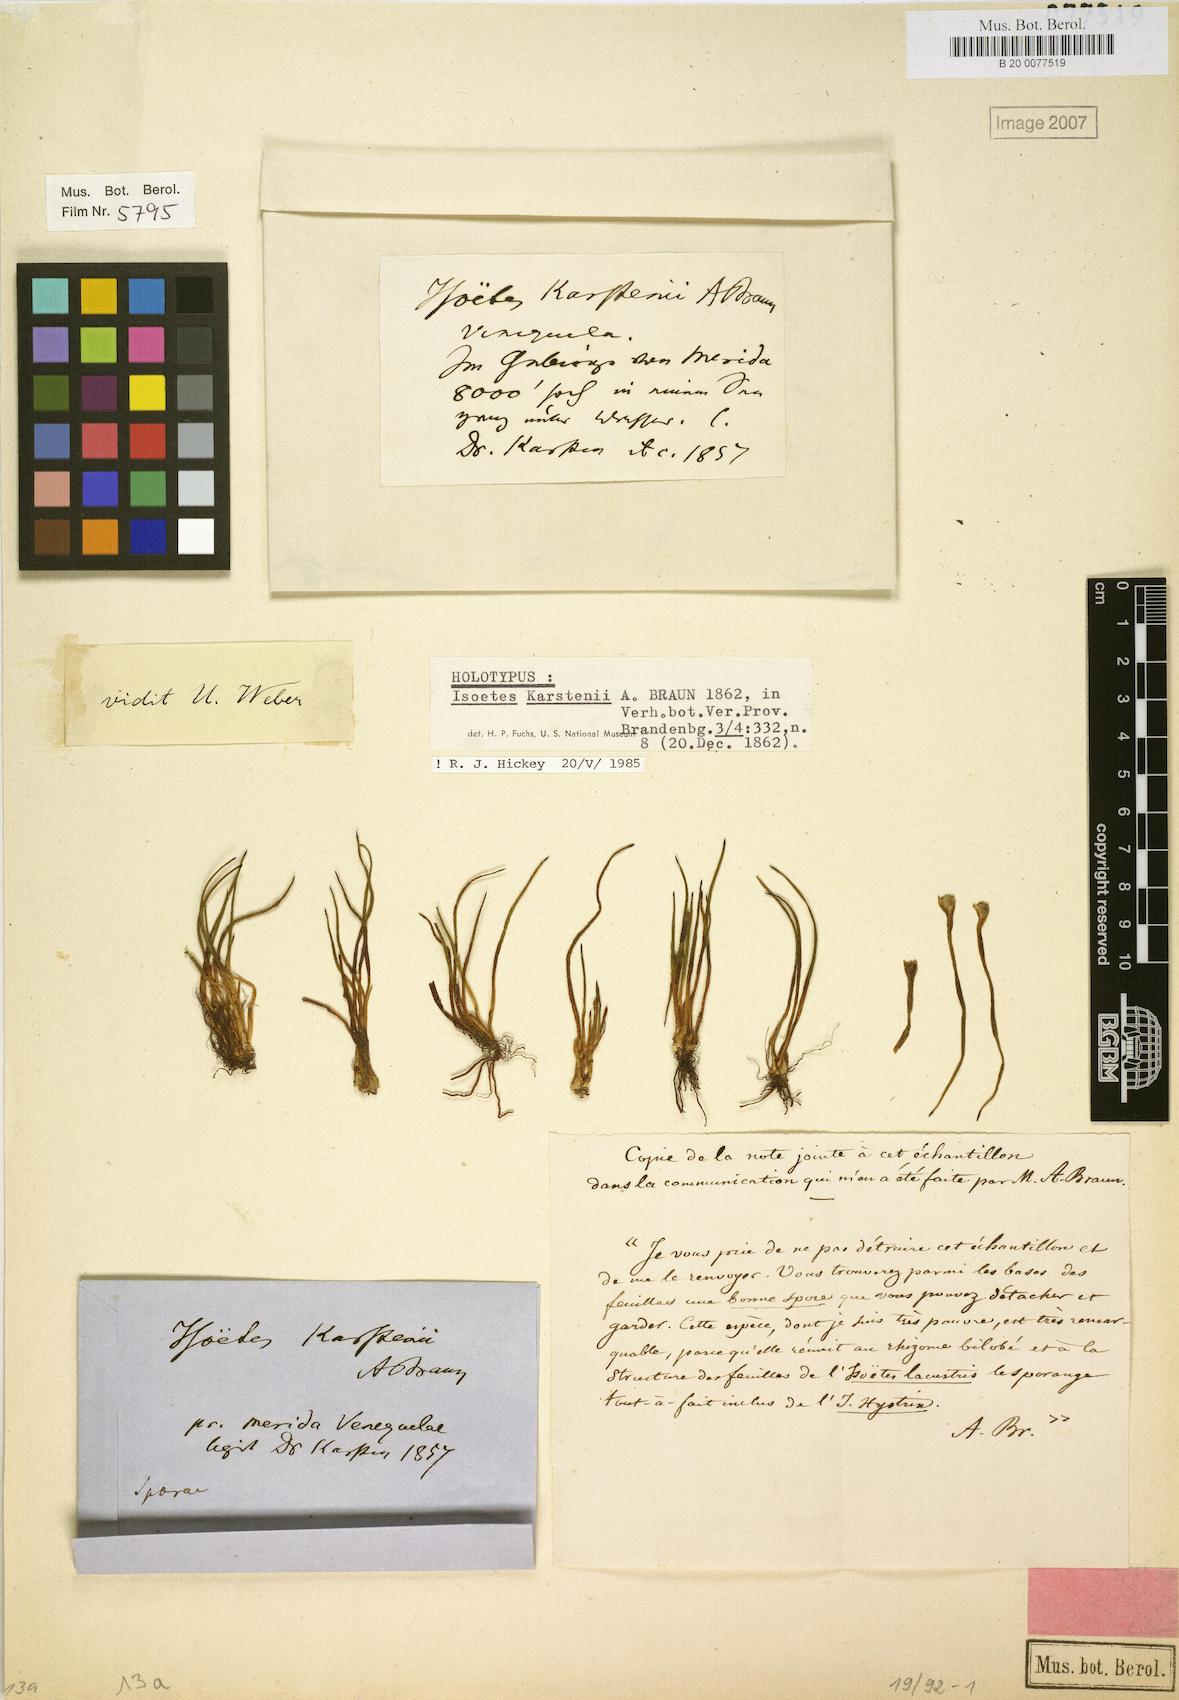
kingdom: Plantae
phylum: Tracheophyta
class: Lycopodiopsida
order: Isoetales
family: Isoetaceae
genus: Isoetes
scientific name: Isoetes karstenii
